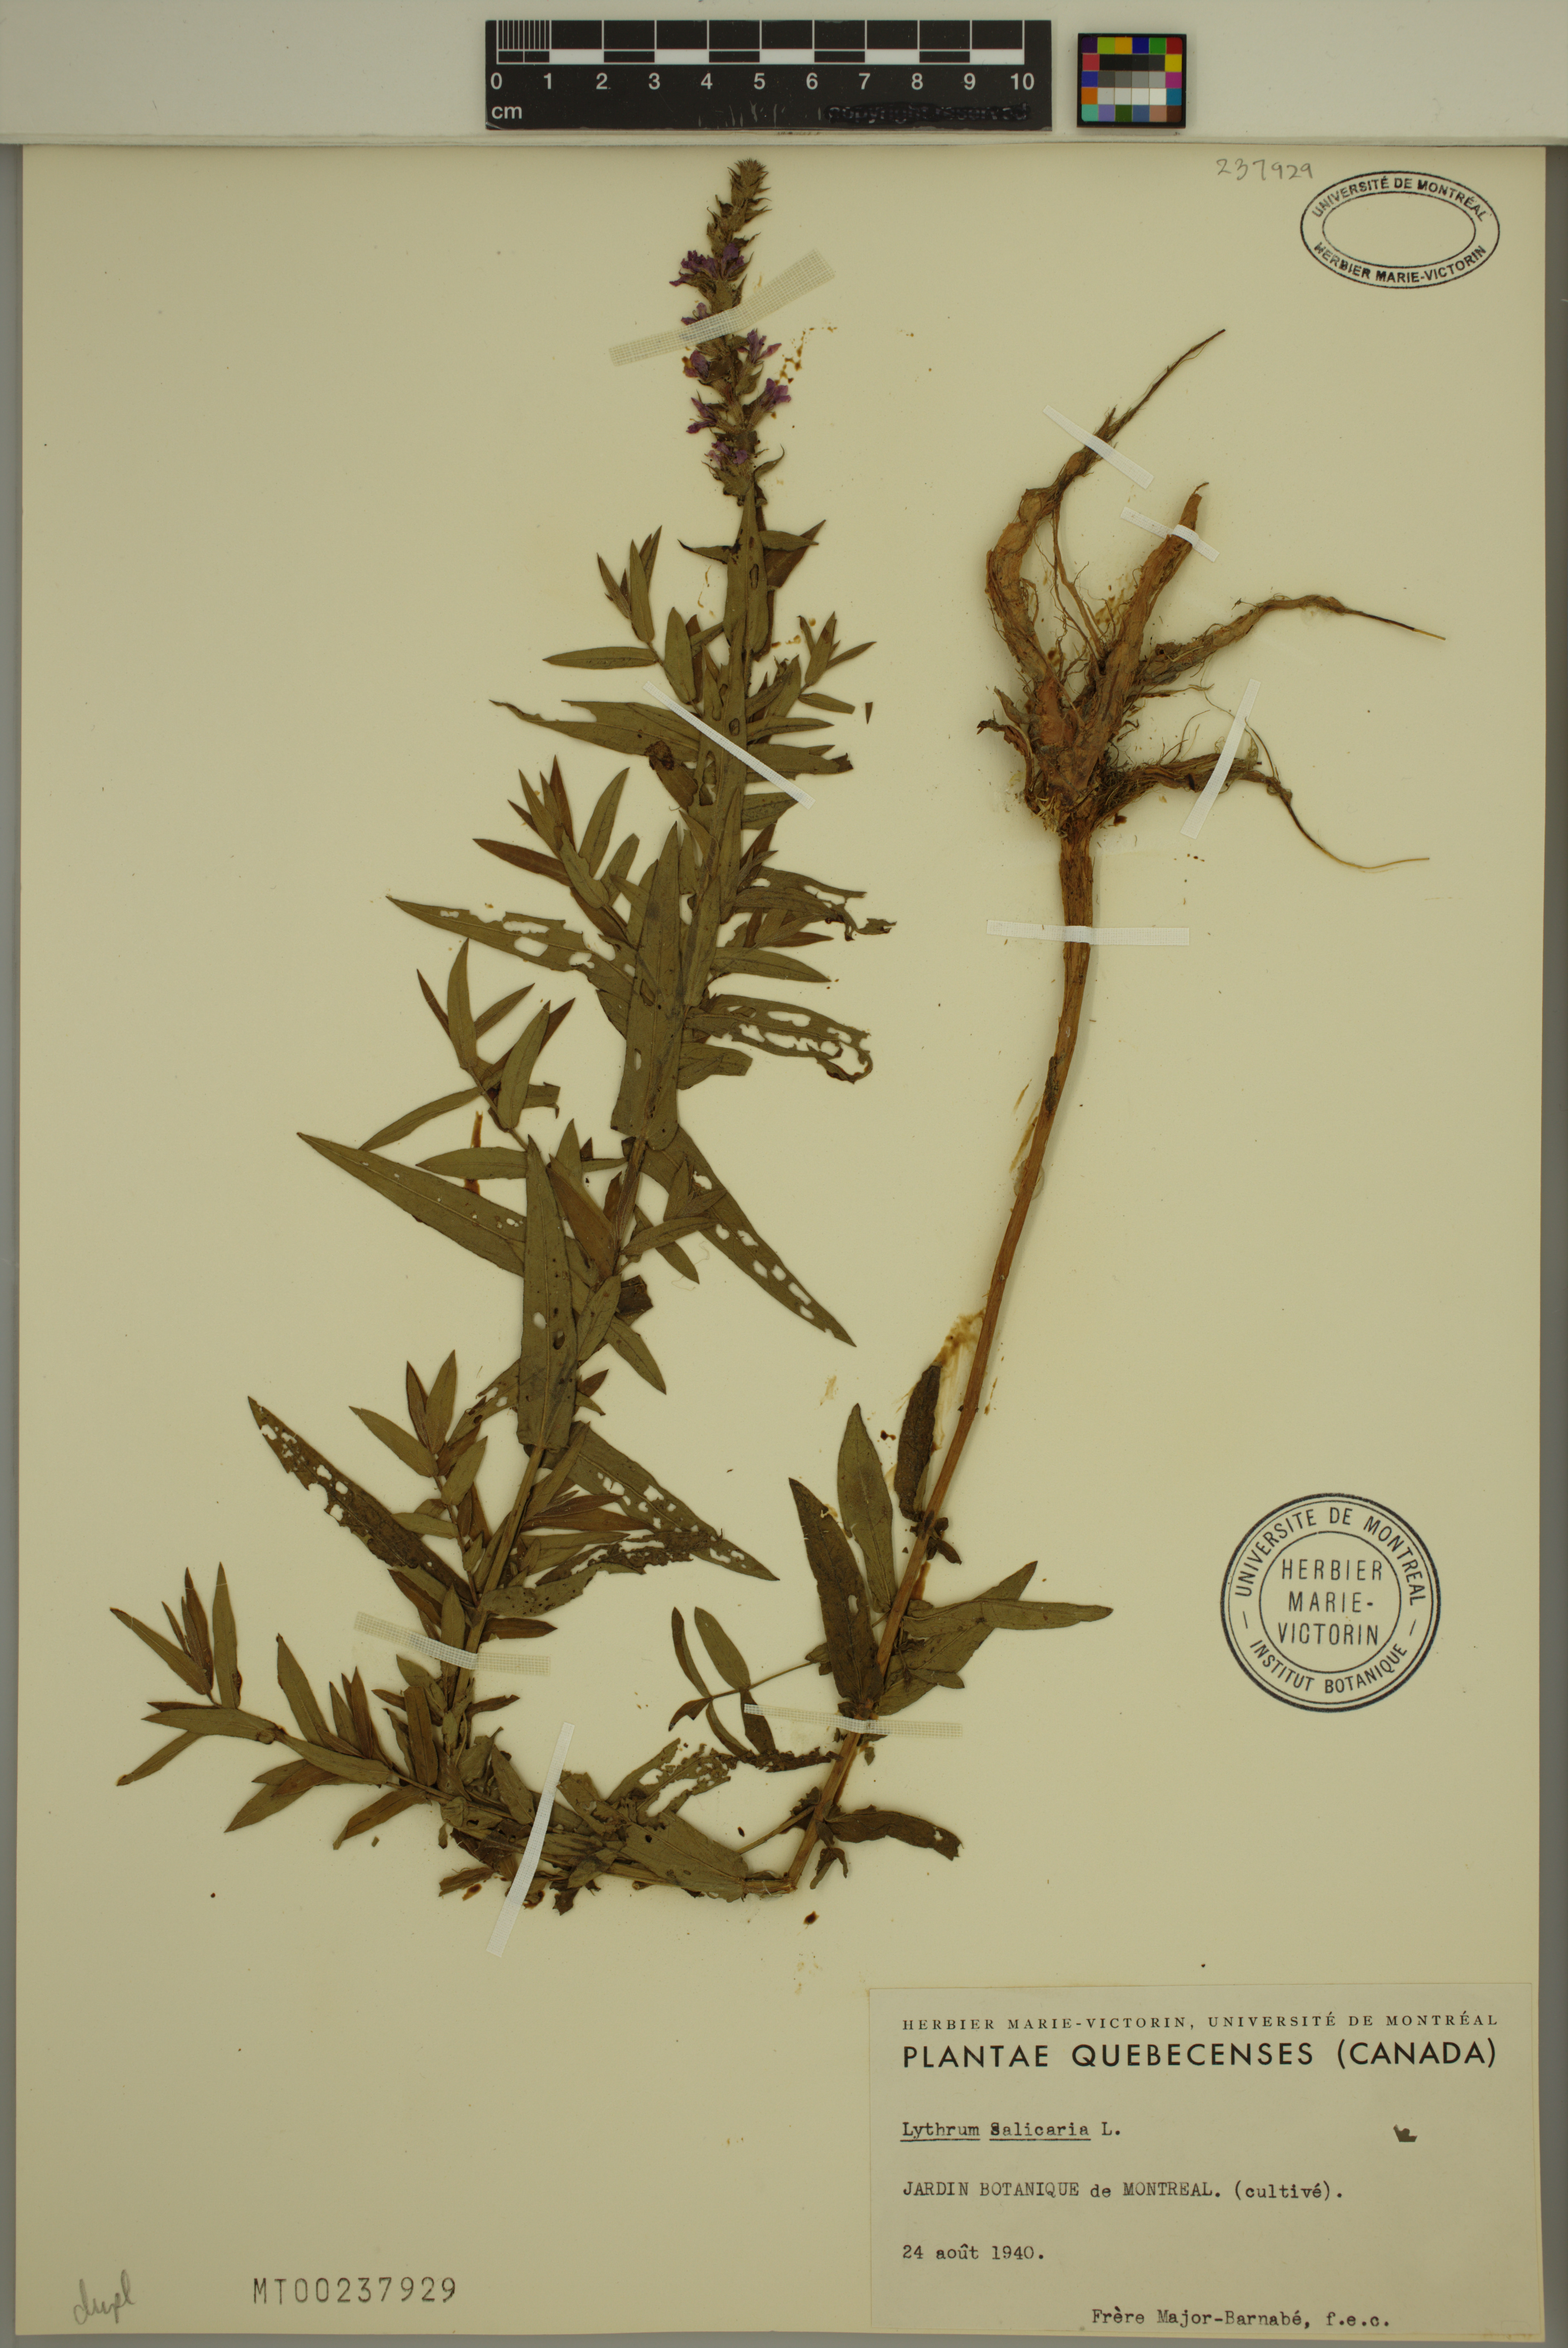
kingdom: Plantae
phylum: Tracheophyta
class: Magnoliopsida
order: Myrtales
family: Lythraceae
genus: Lythrum
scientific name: Lythrum salicaria
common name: Purple loosestrife
